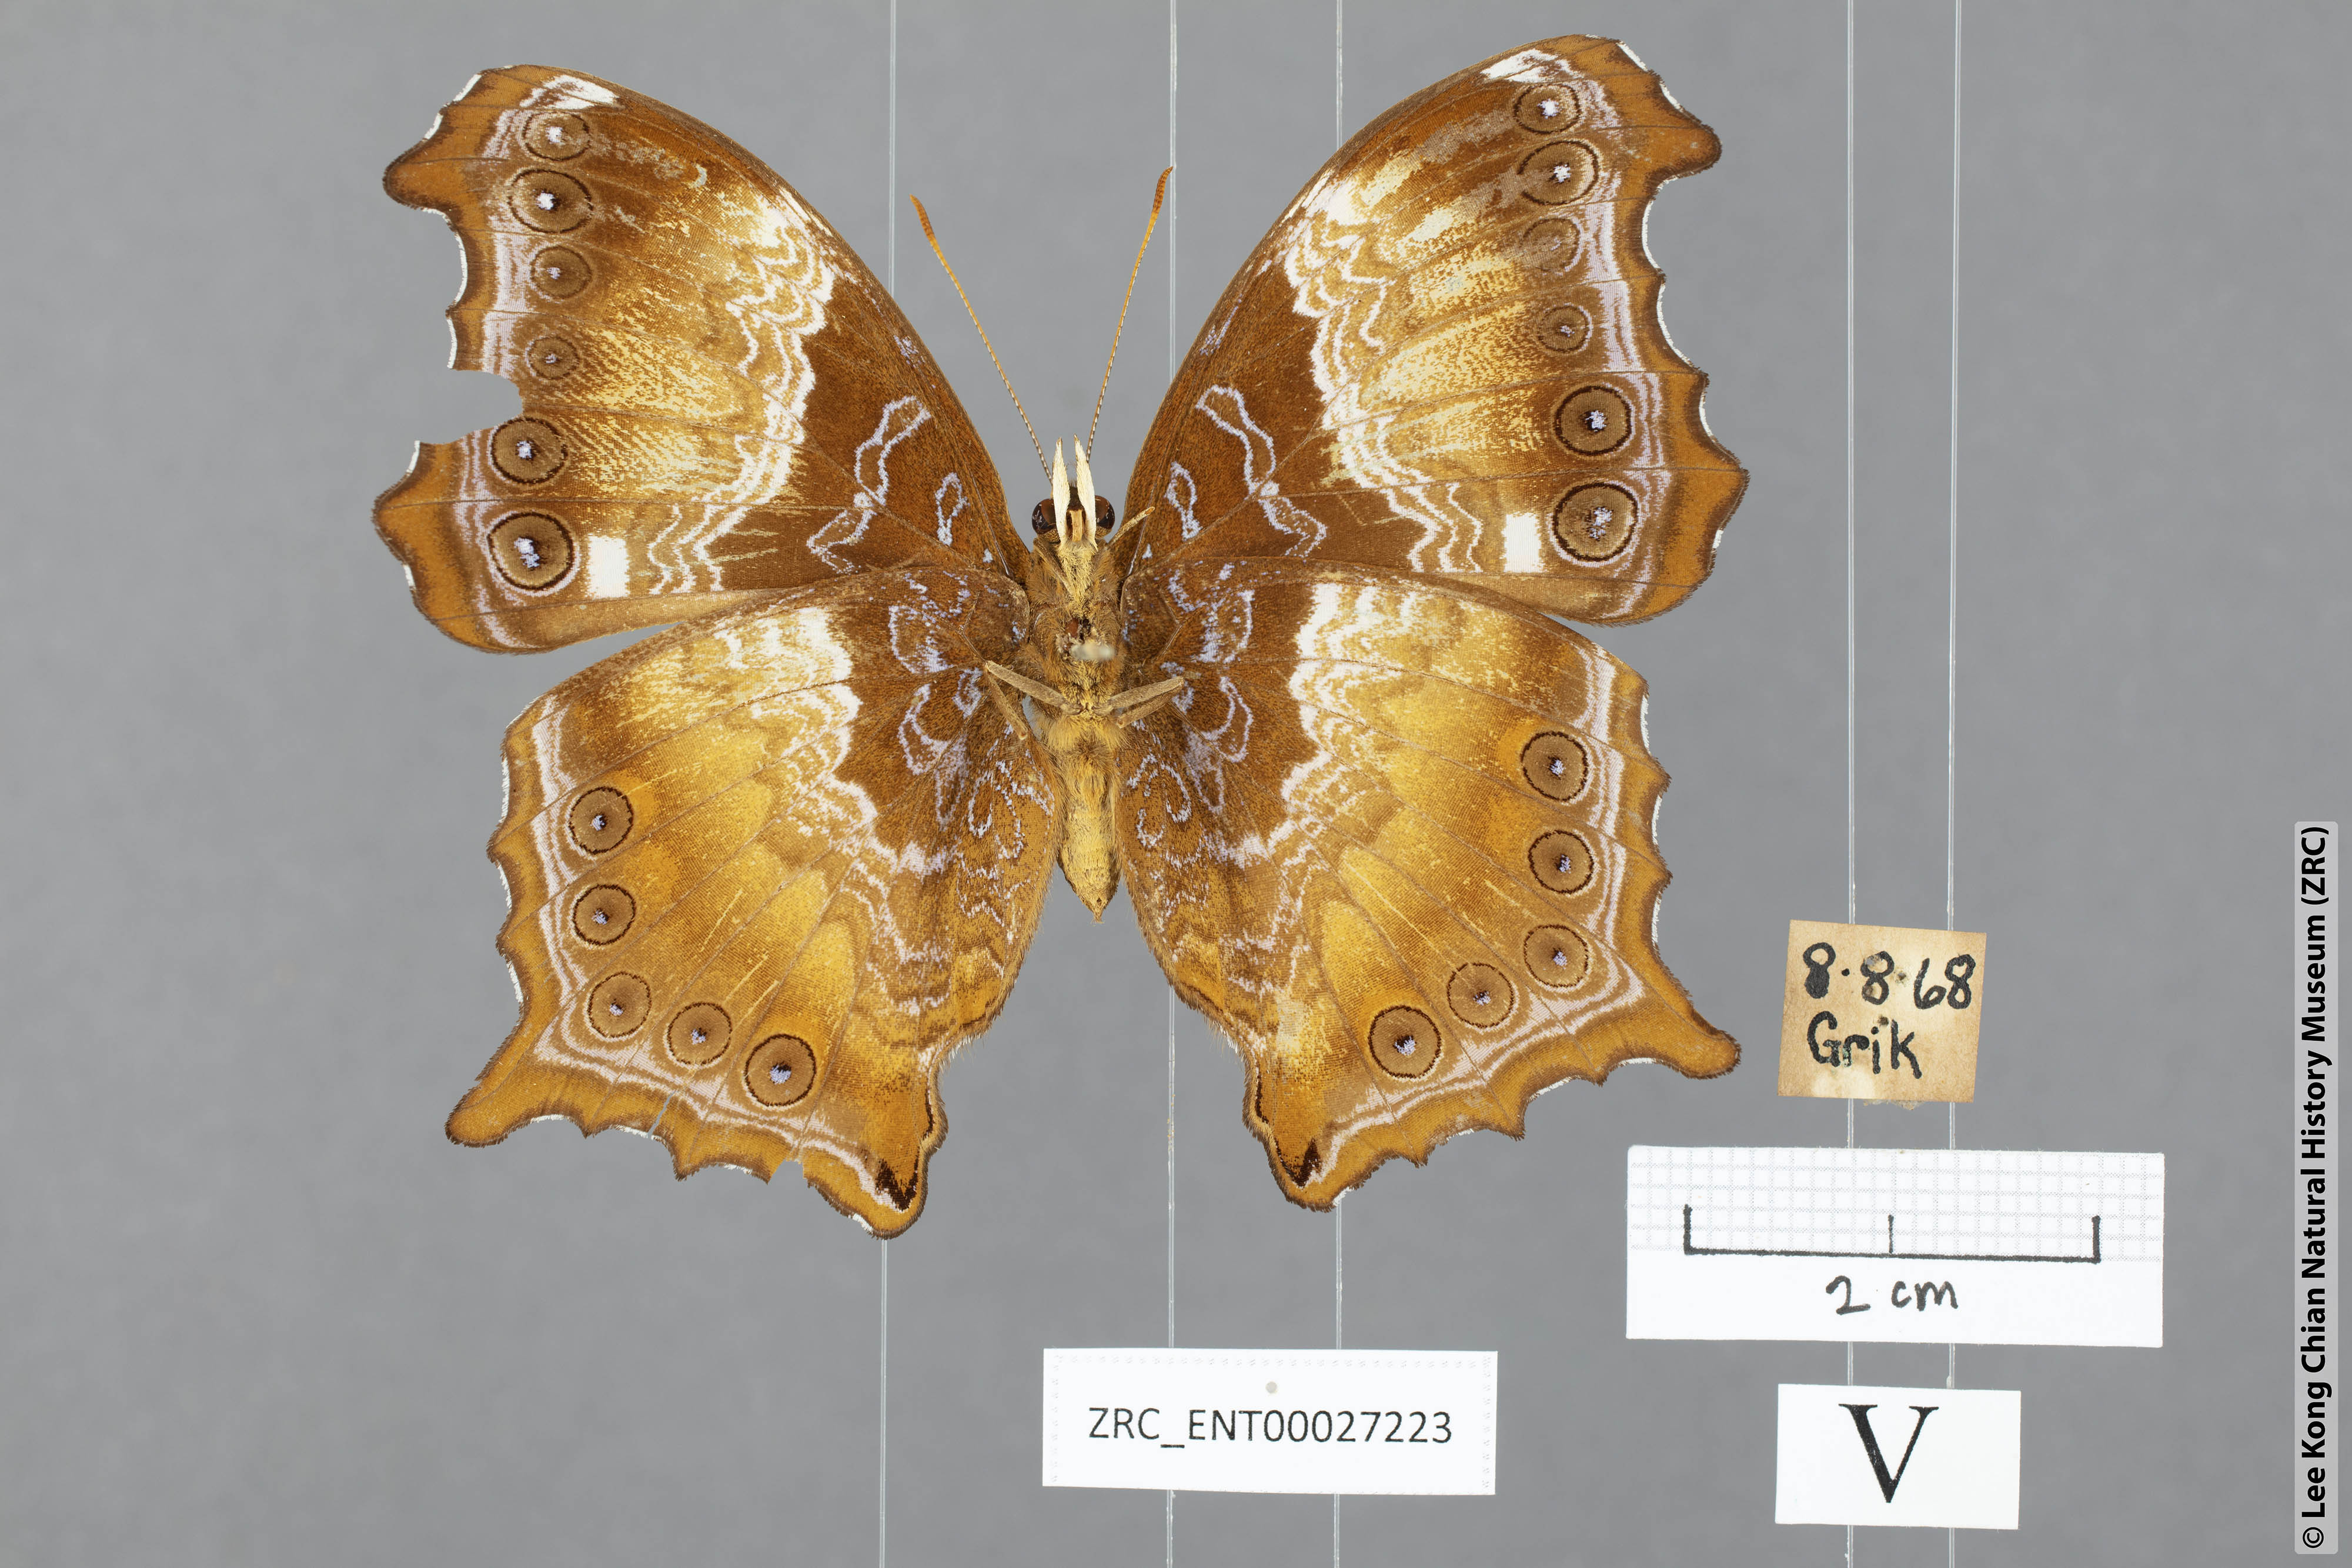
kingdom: Animalia
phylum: Arthropoda
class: Insecta
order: Lepidoptera
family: Nymphalidae
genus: Rhinopalpa
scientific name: Rhinopalpa polynice
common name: Wizard
